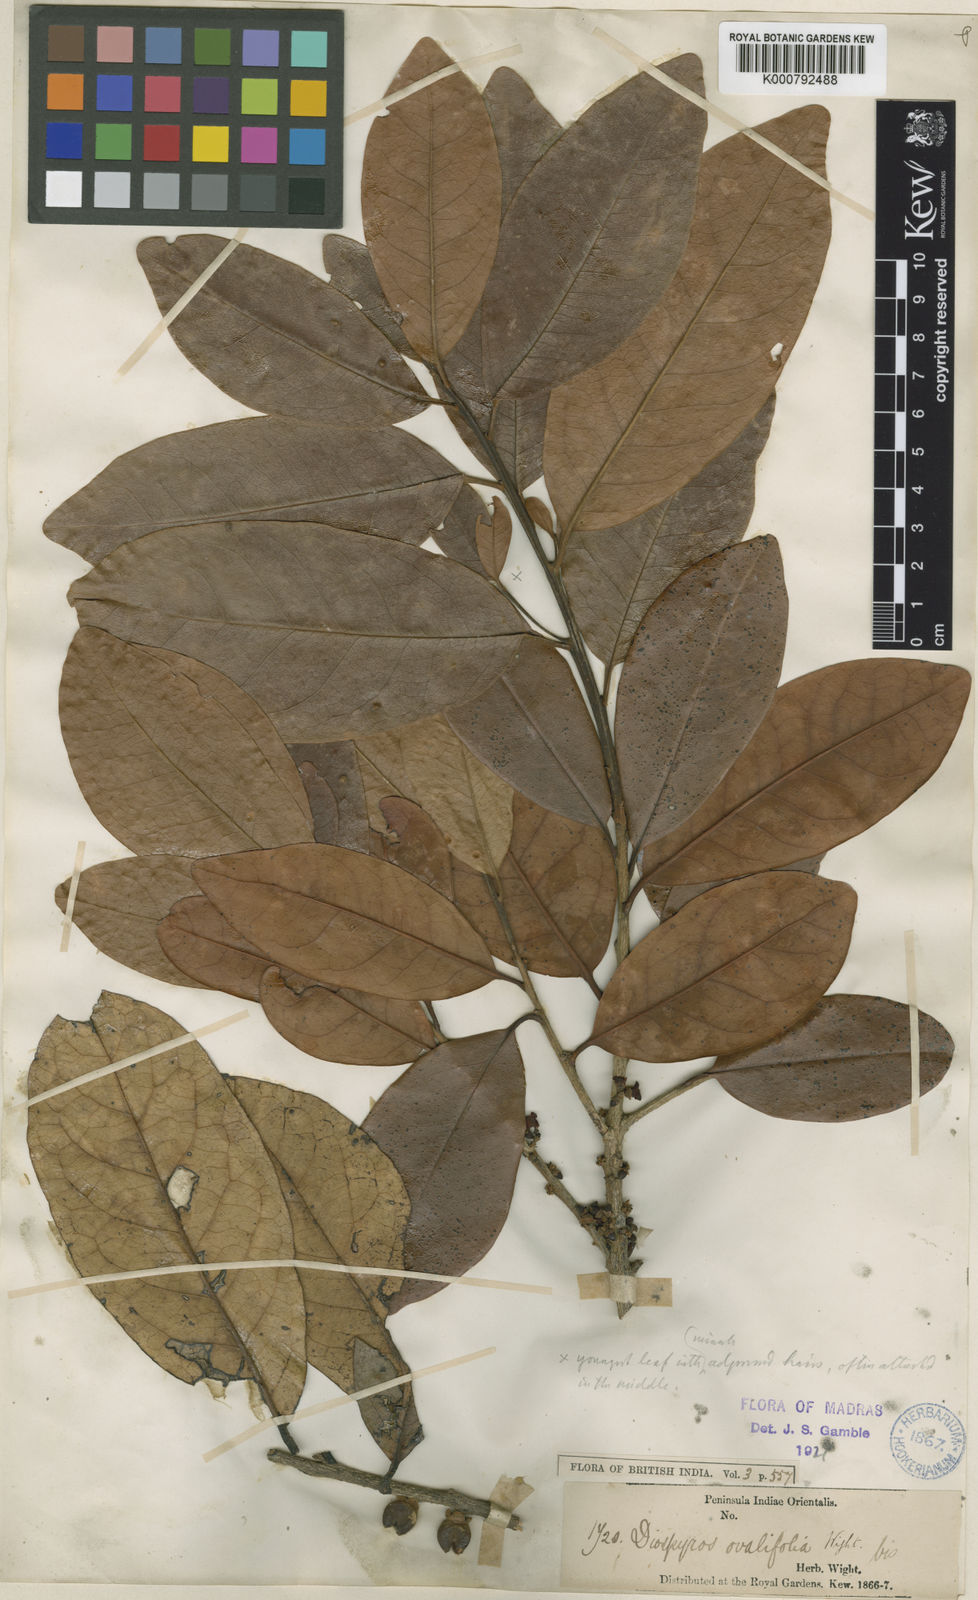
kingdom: Plantae
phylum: Tracheophyta
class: Magnoliopsida
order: Ericales
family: Ebenaceae
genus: Diospyros
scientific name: Diospyros ovalifolia
